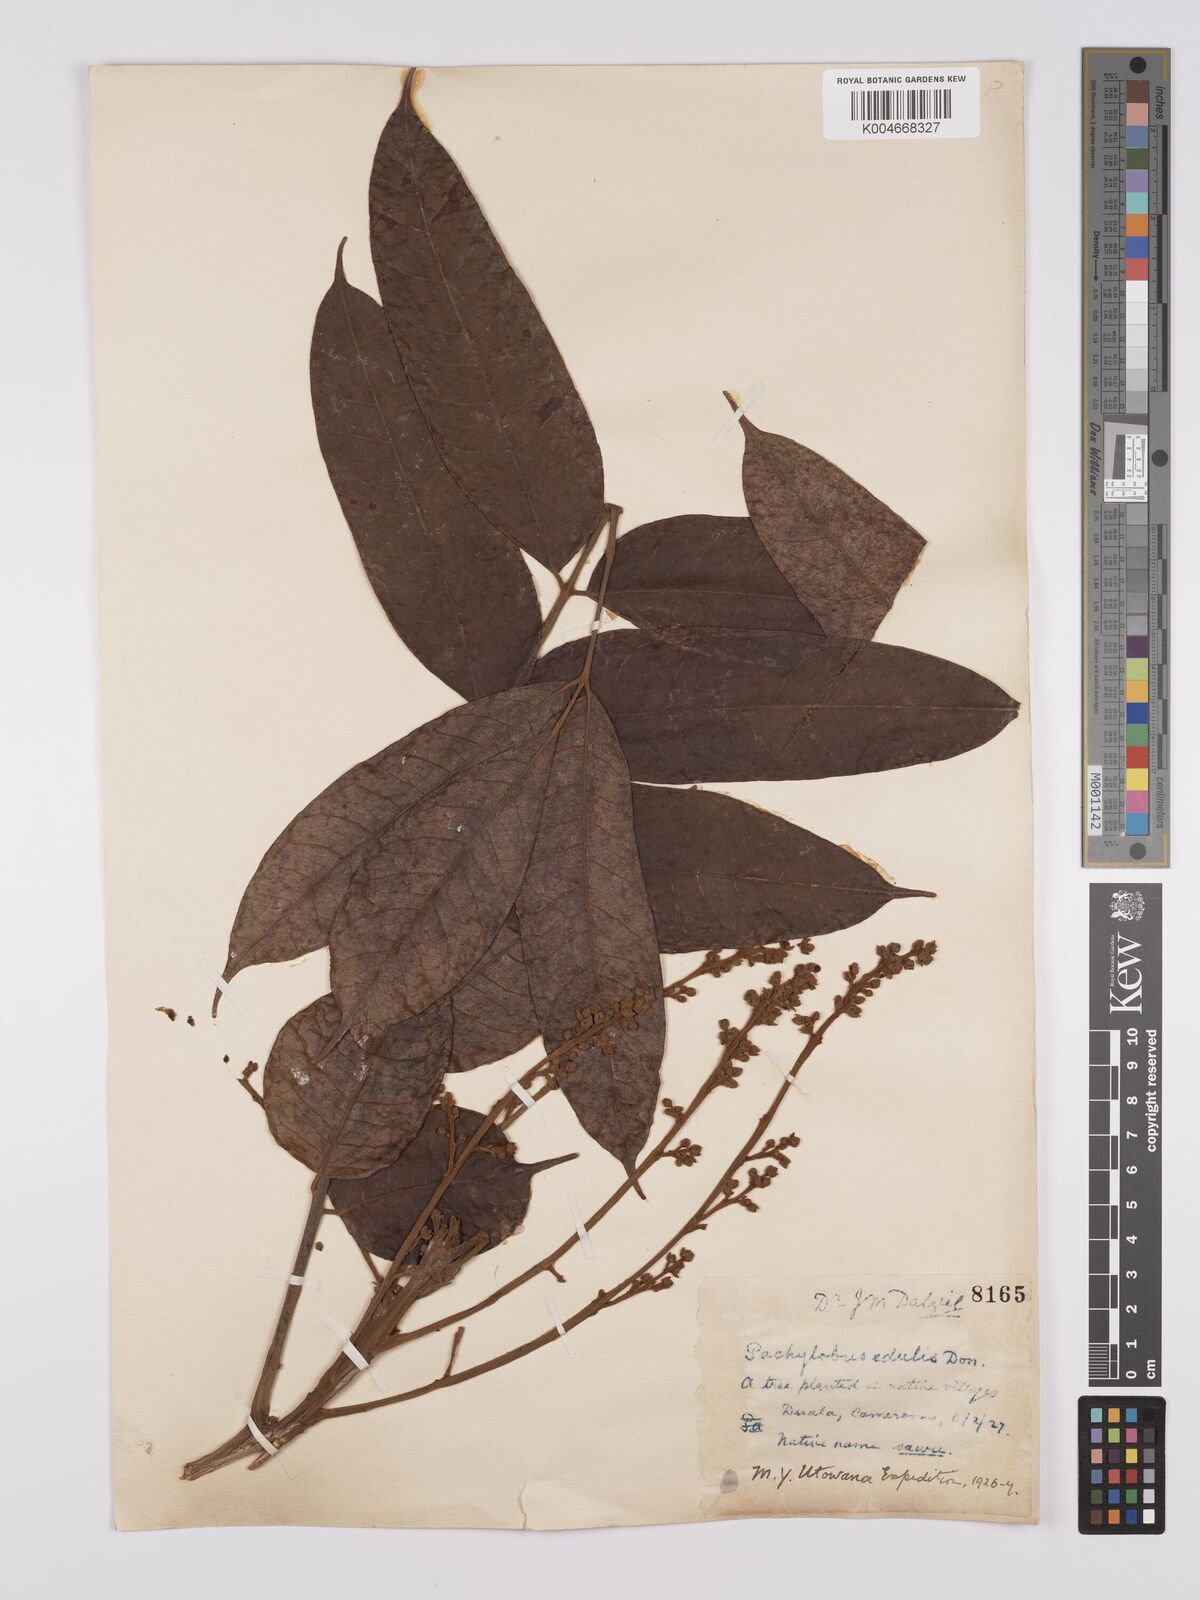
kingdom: Plantae
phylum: Tracheophyta
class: Magnoliopsida
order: Sapindales
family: Burseraceae
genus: Pachylobus
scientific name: Pachylobus edulis
